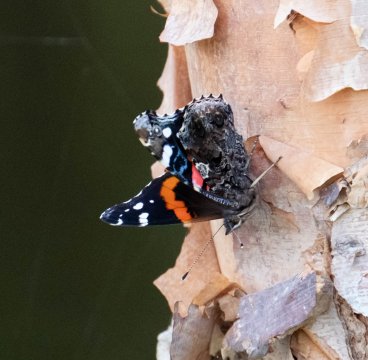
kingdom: Animalia
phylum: Arthropoda
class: Insecta
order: Lepidoptera
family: Nymphalidae
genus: Vanessa
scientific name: Vanessa atalanta
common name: Red Admiral
